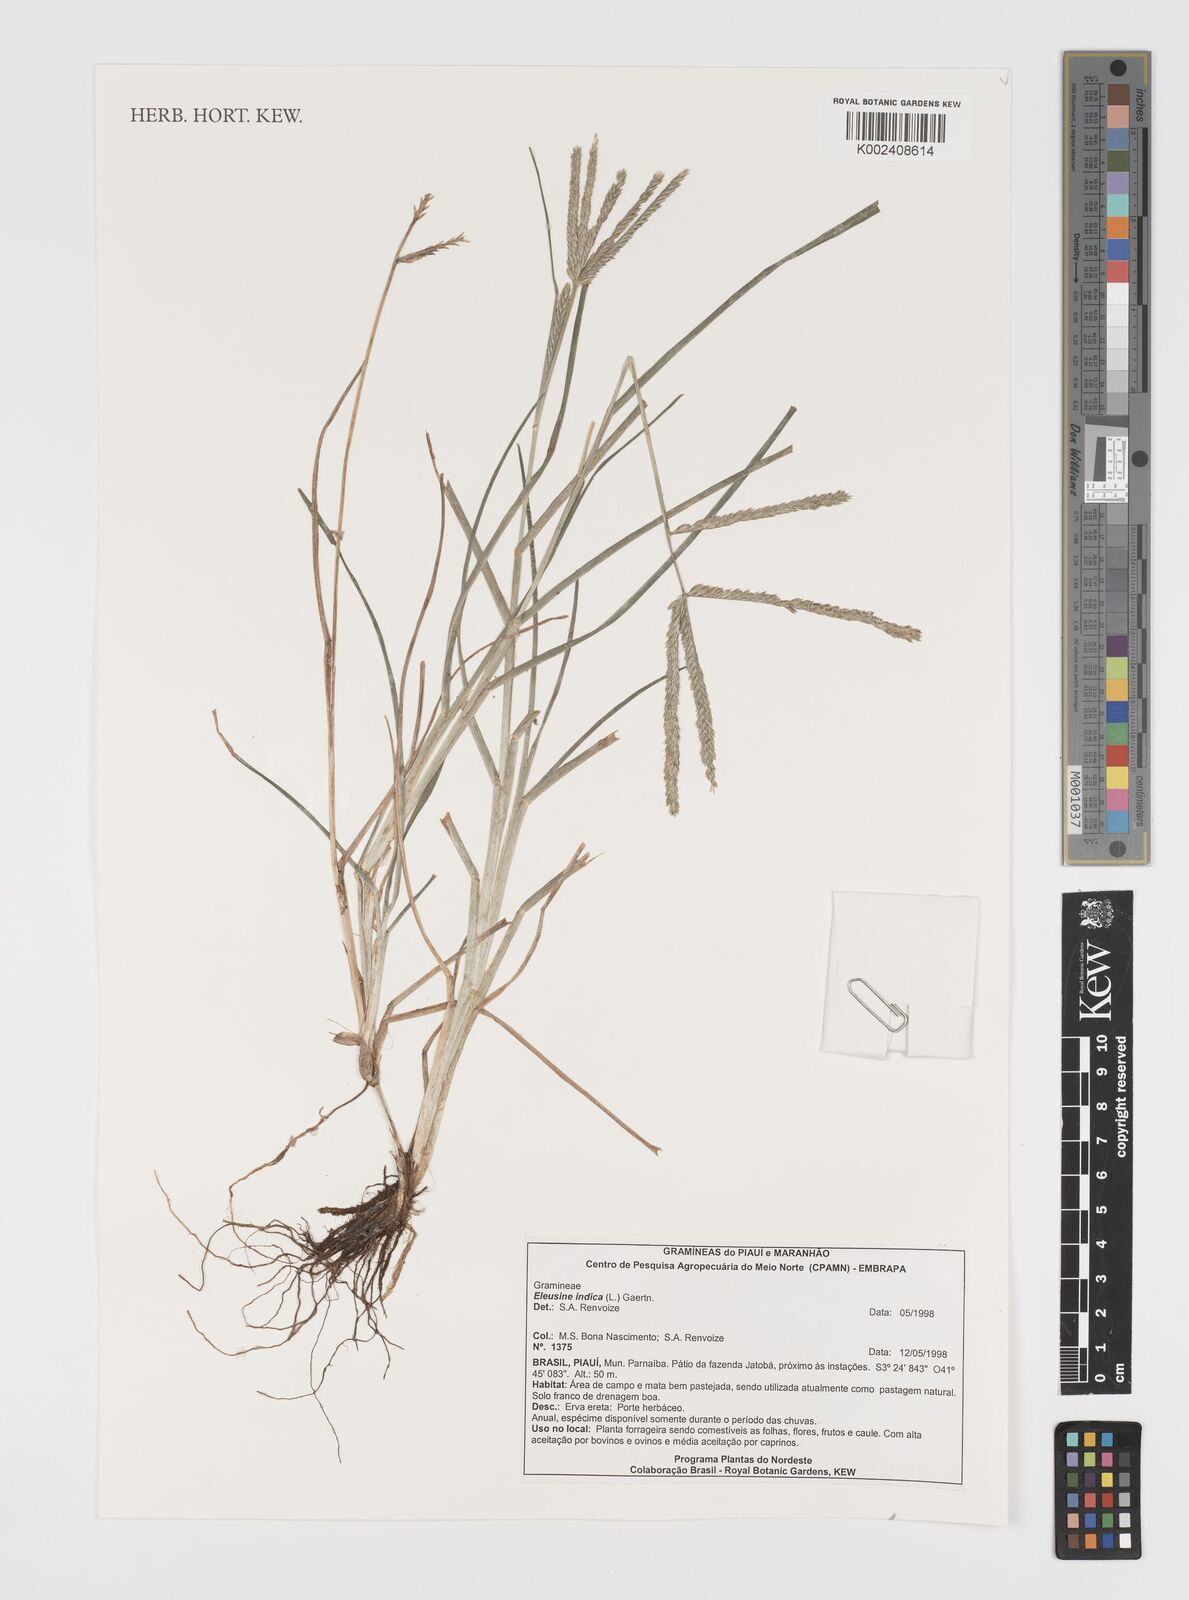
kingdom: Plantae
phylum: Tracheophyta
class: Liliopsida
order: Poales
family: Poaceae
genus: Eleusine
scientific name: Eleusine indica
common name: Yard-grass
